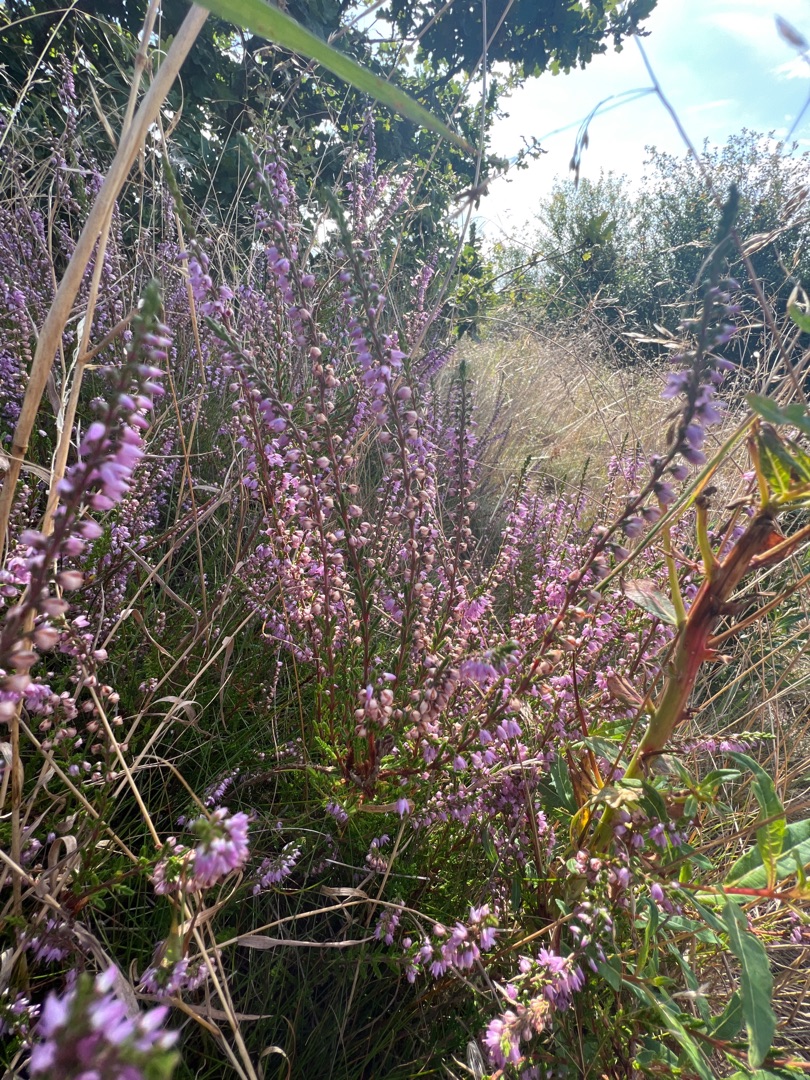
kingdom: Plantae
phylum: Tracheophyta
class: Magnoliopsida
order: Ericales
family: Ericaceae
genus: Calluna
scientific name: Calluna vulgaris
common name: Hedelyng
